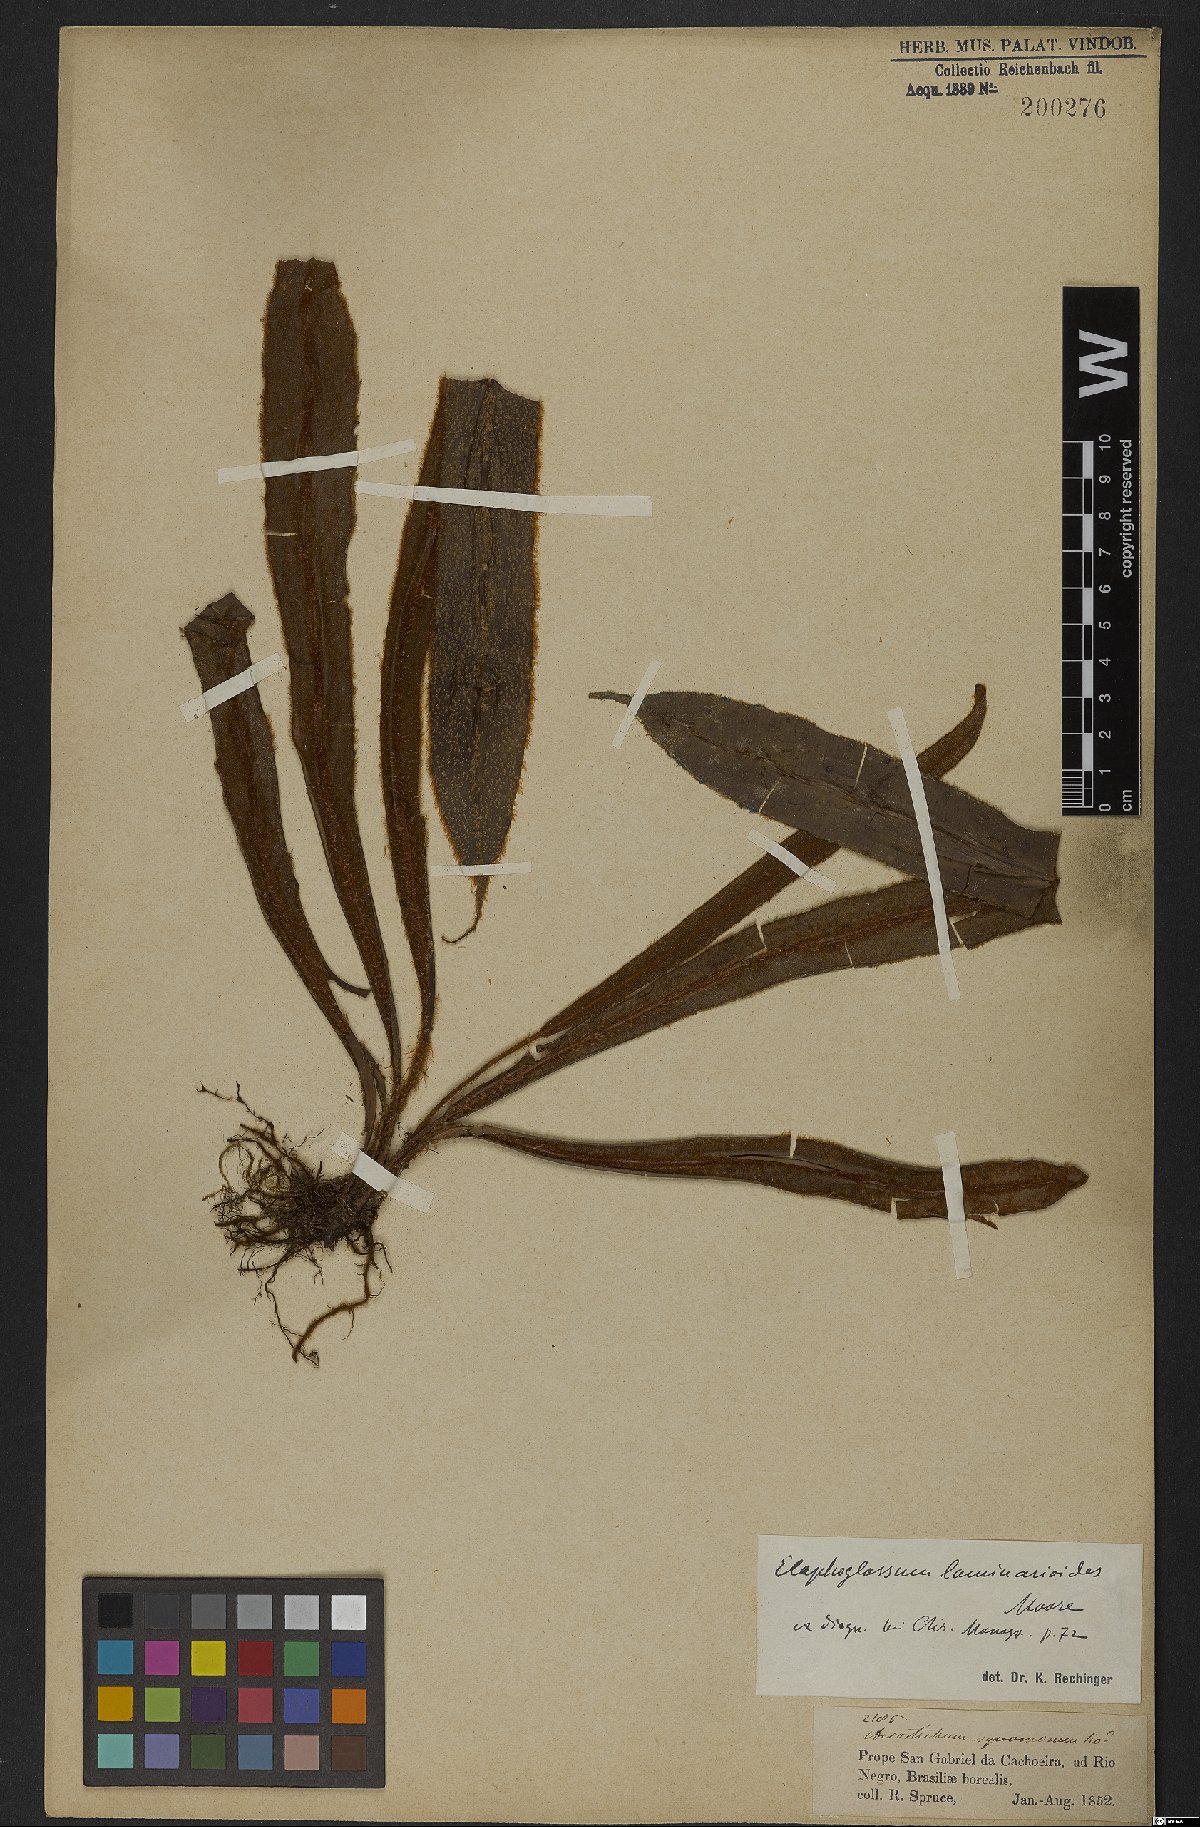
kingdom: Plantae
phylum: Tracheophyta
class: Polypodiopsida
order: Polypodiales
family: Dryopteridaceae
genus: Elaphoglossum
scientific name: Elaphoglossum laminarioides
